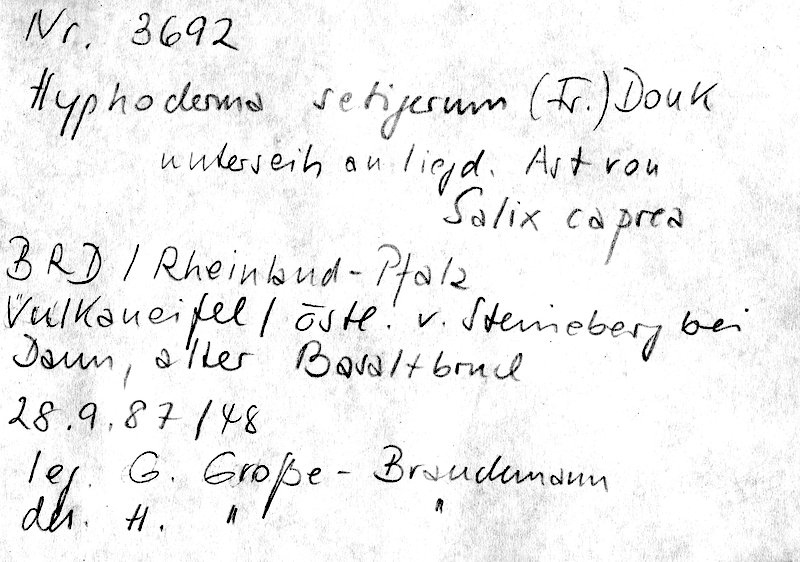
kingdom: Fungi
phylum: Basidiomycota
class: Agaricomycetes
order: Polyporales
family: Hyphodermataceae
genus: Hyphoderma
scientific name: Hyphoderma setigerum
